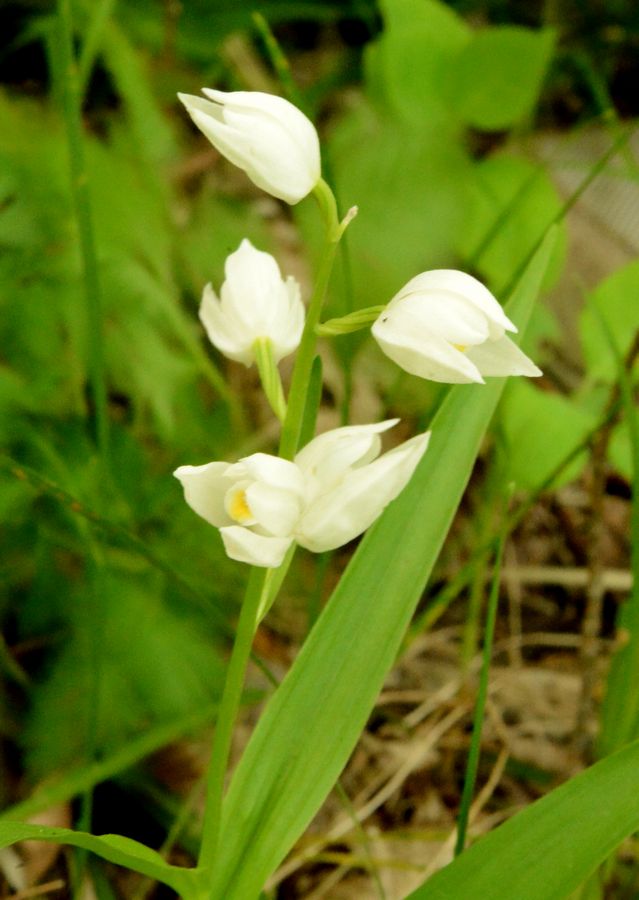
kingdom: Plantae
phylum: Tracheophyta
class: Liliopsida
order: Asparagales
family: Orchidaceae
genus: Cephalanthera
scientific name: Cephalanthera longifolia
